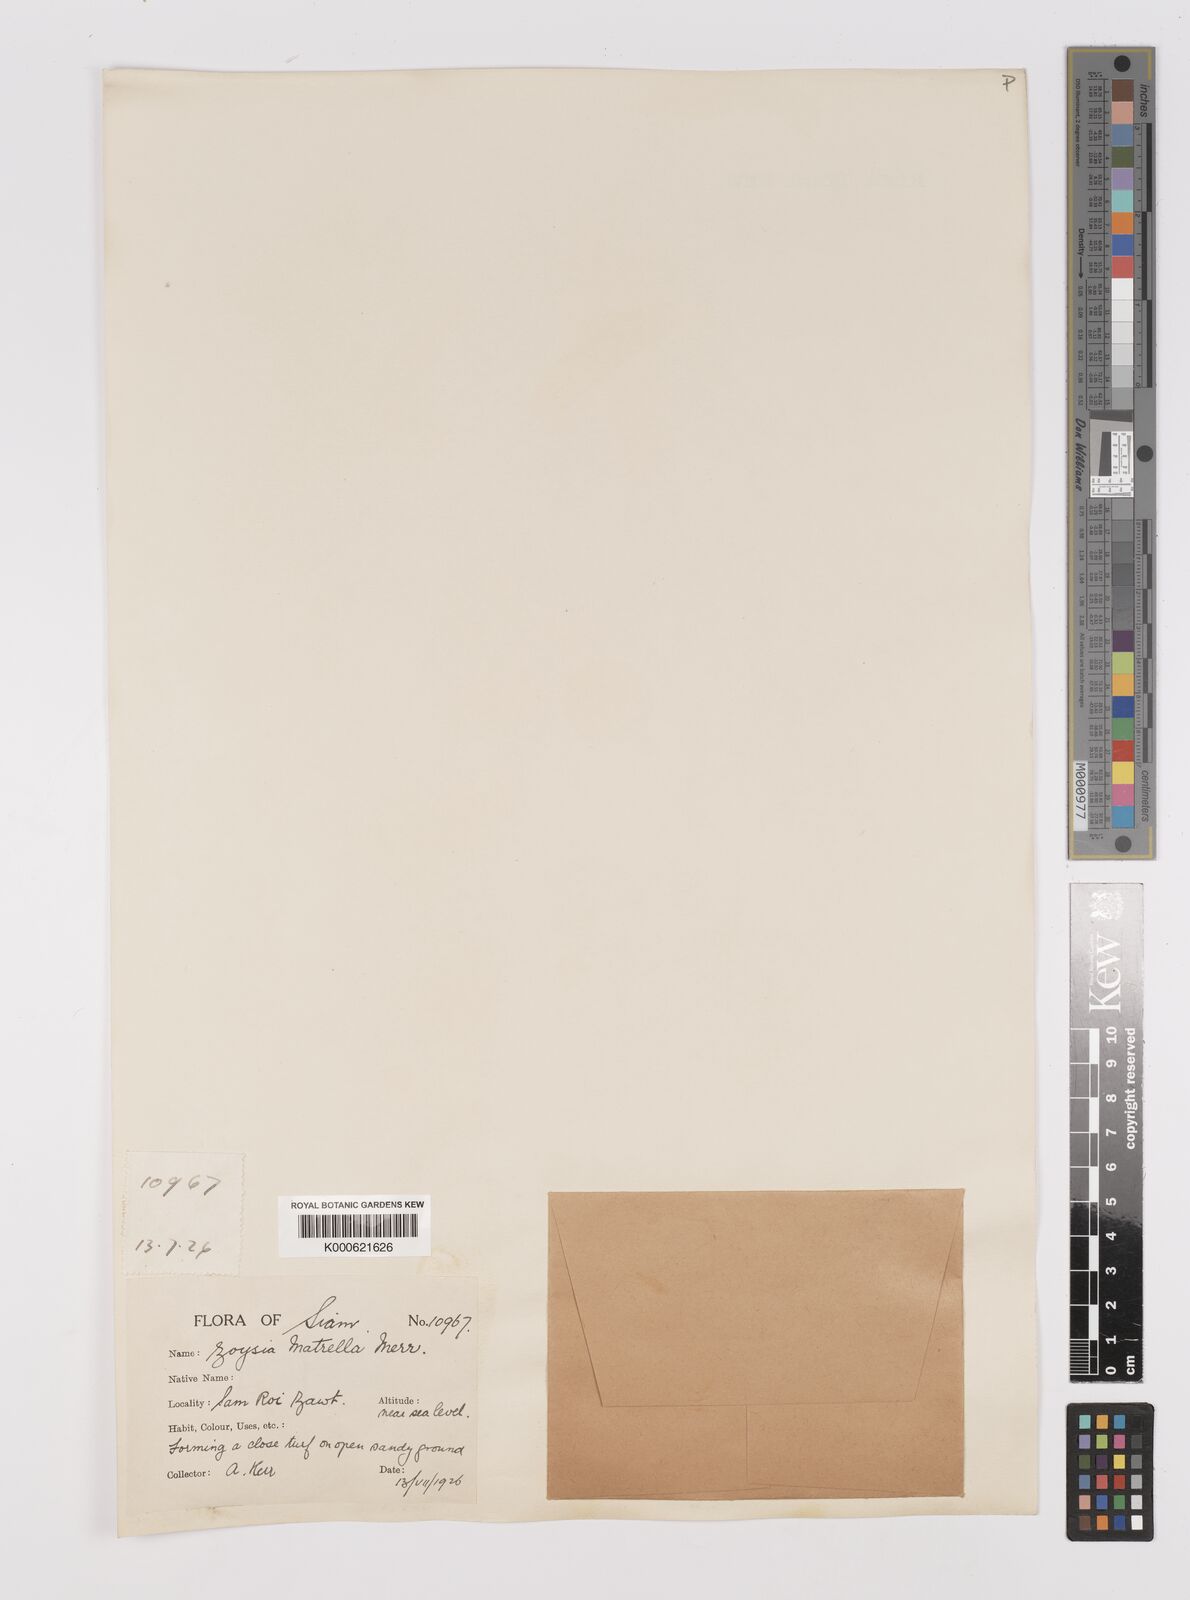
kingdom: Plantae
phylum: Tracheophyta
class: Liliopsida
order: Poales
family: Poaceae
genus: Zoysia
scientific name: Zoysia matrella
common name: Manila grass
